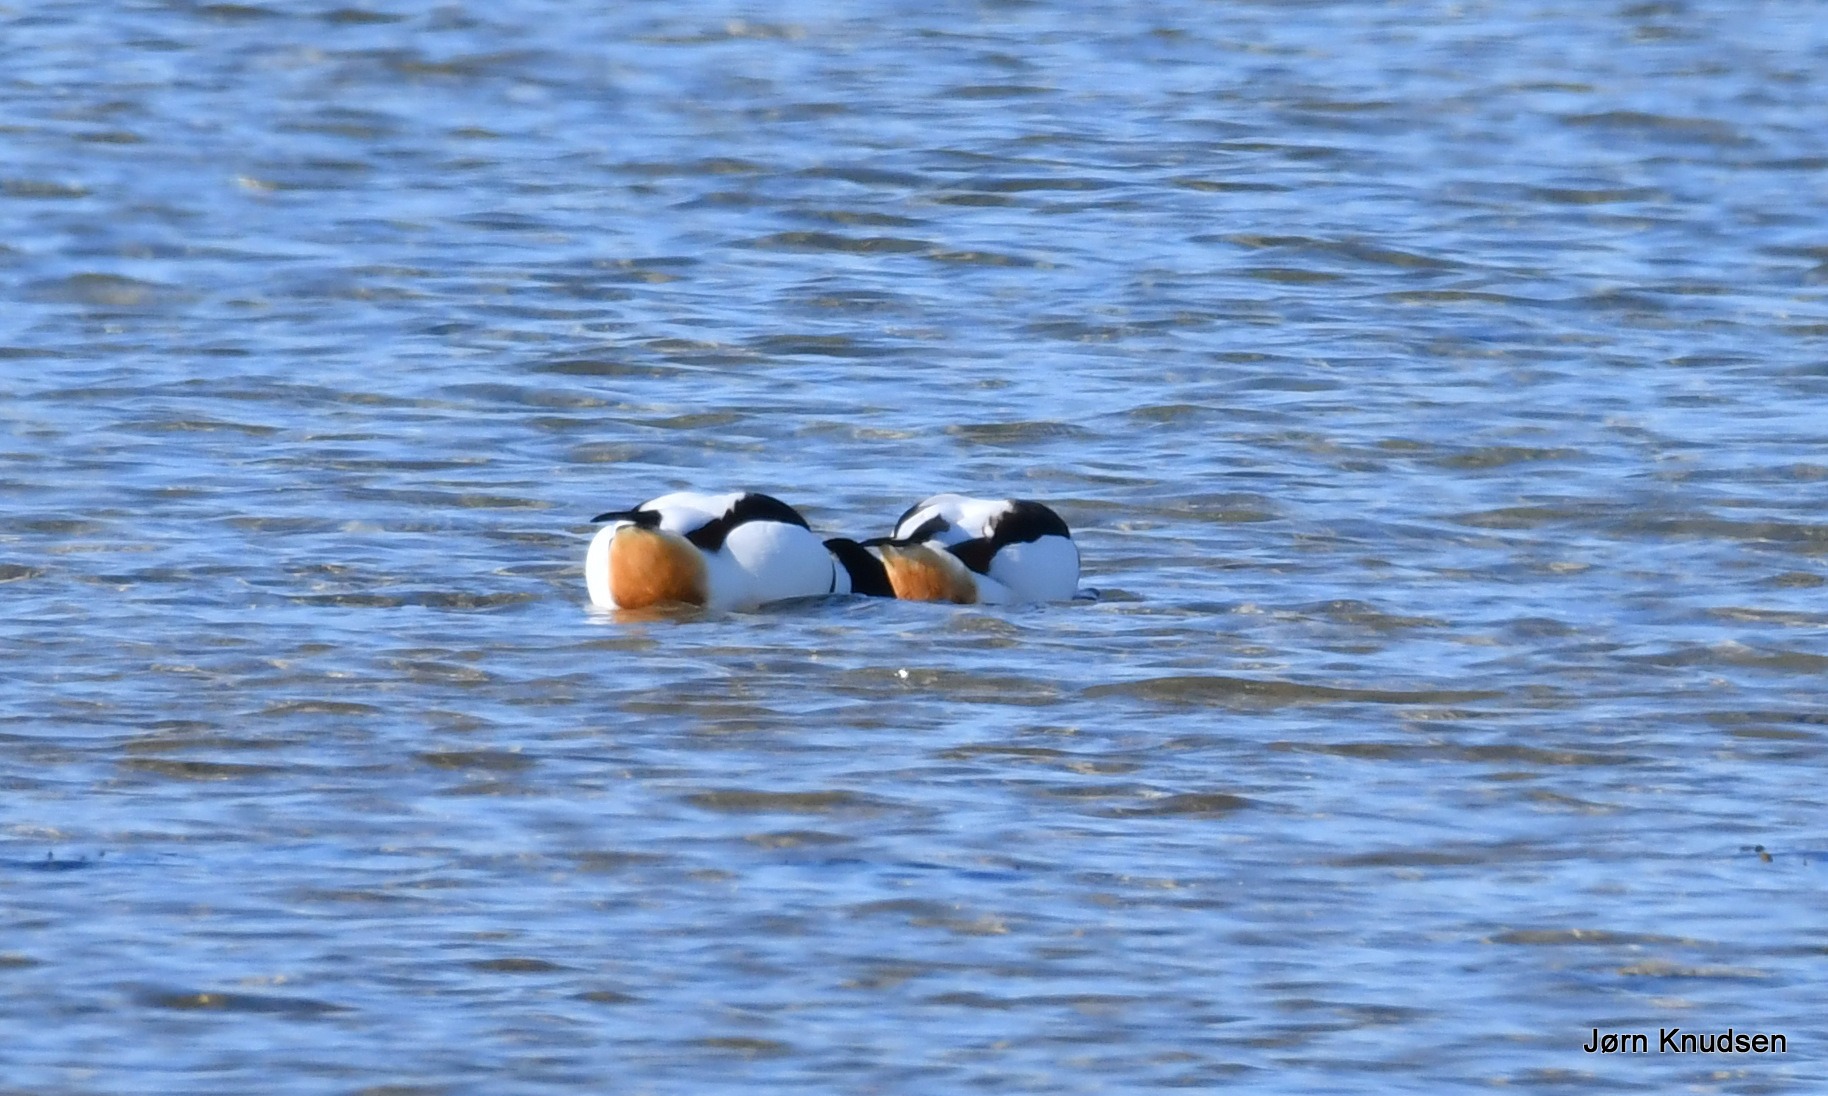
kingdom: Animalia
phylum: Chordata
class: Aves
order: Anseriformes
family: Anatidae
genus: Tadorna
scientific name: Tadorna tadorna
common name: Gravand
